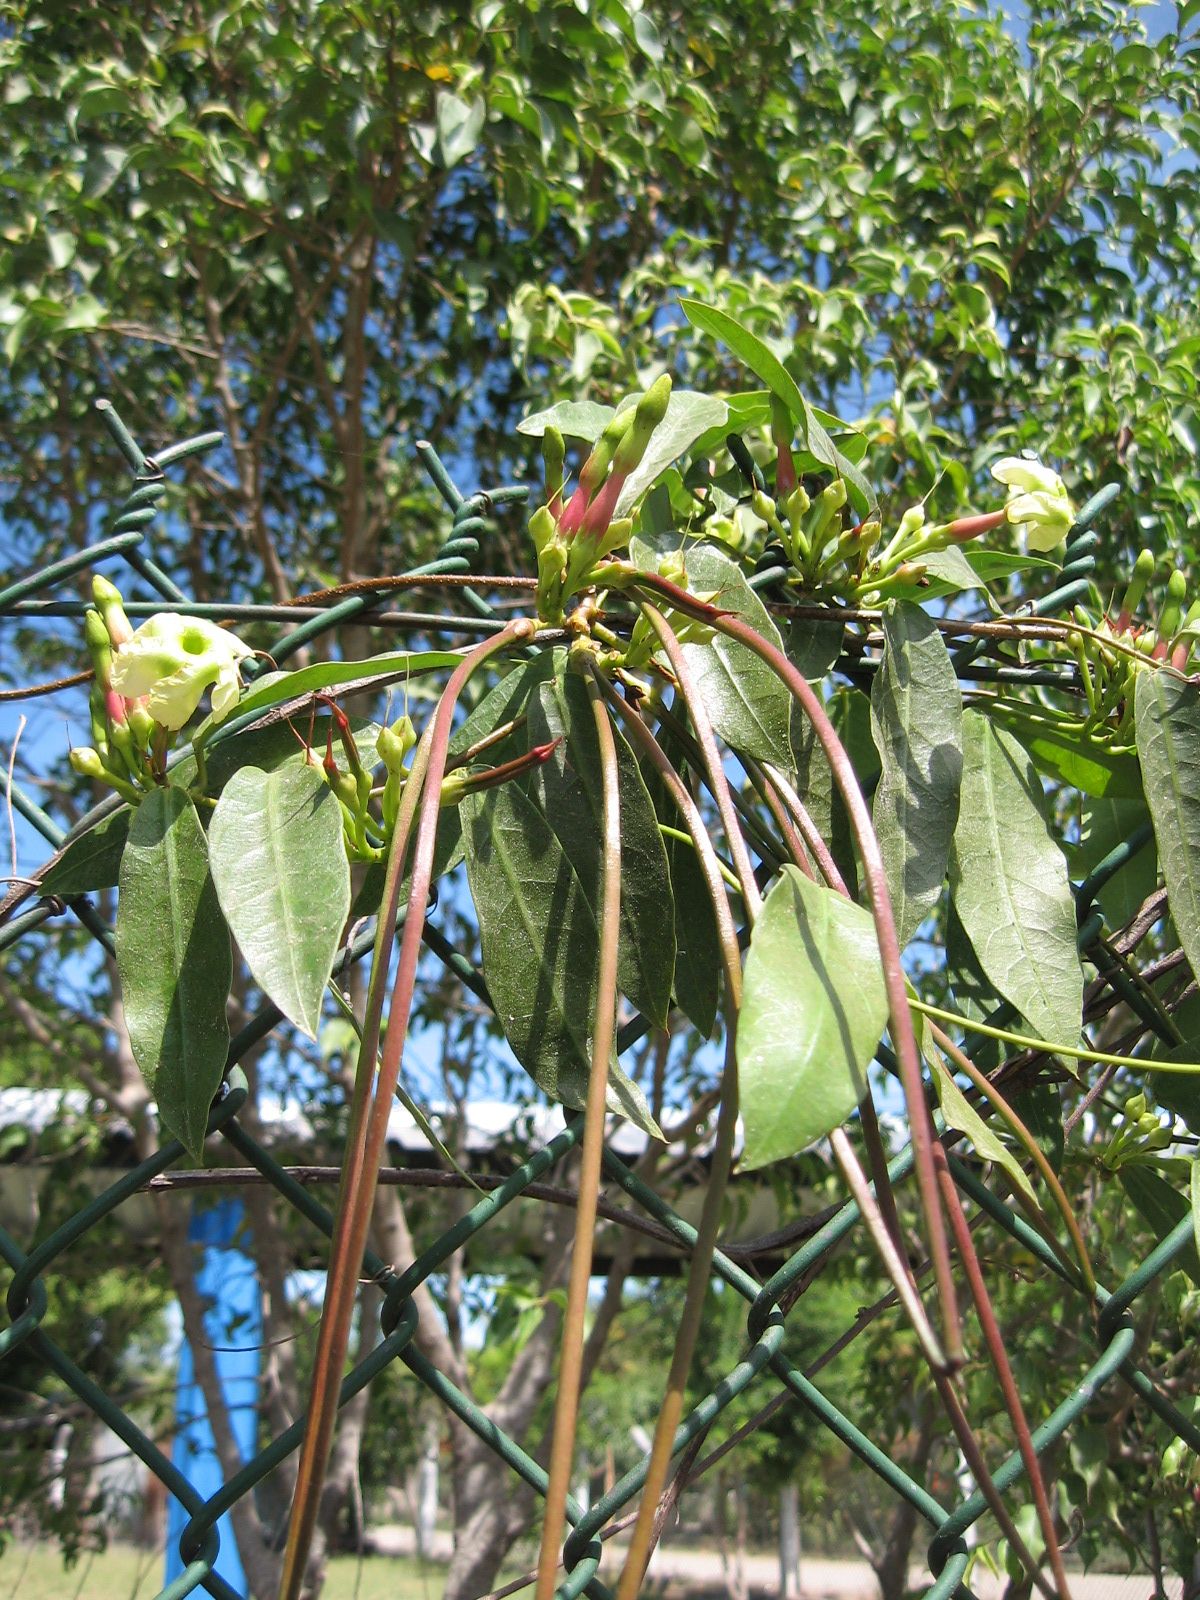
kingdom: Plantae
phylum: Tracheophyta
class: Magnoliopsida
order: Gentianales
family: Apocynaceae
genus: Mesechites
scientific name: Mesechites trifidus
